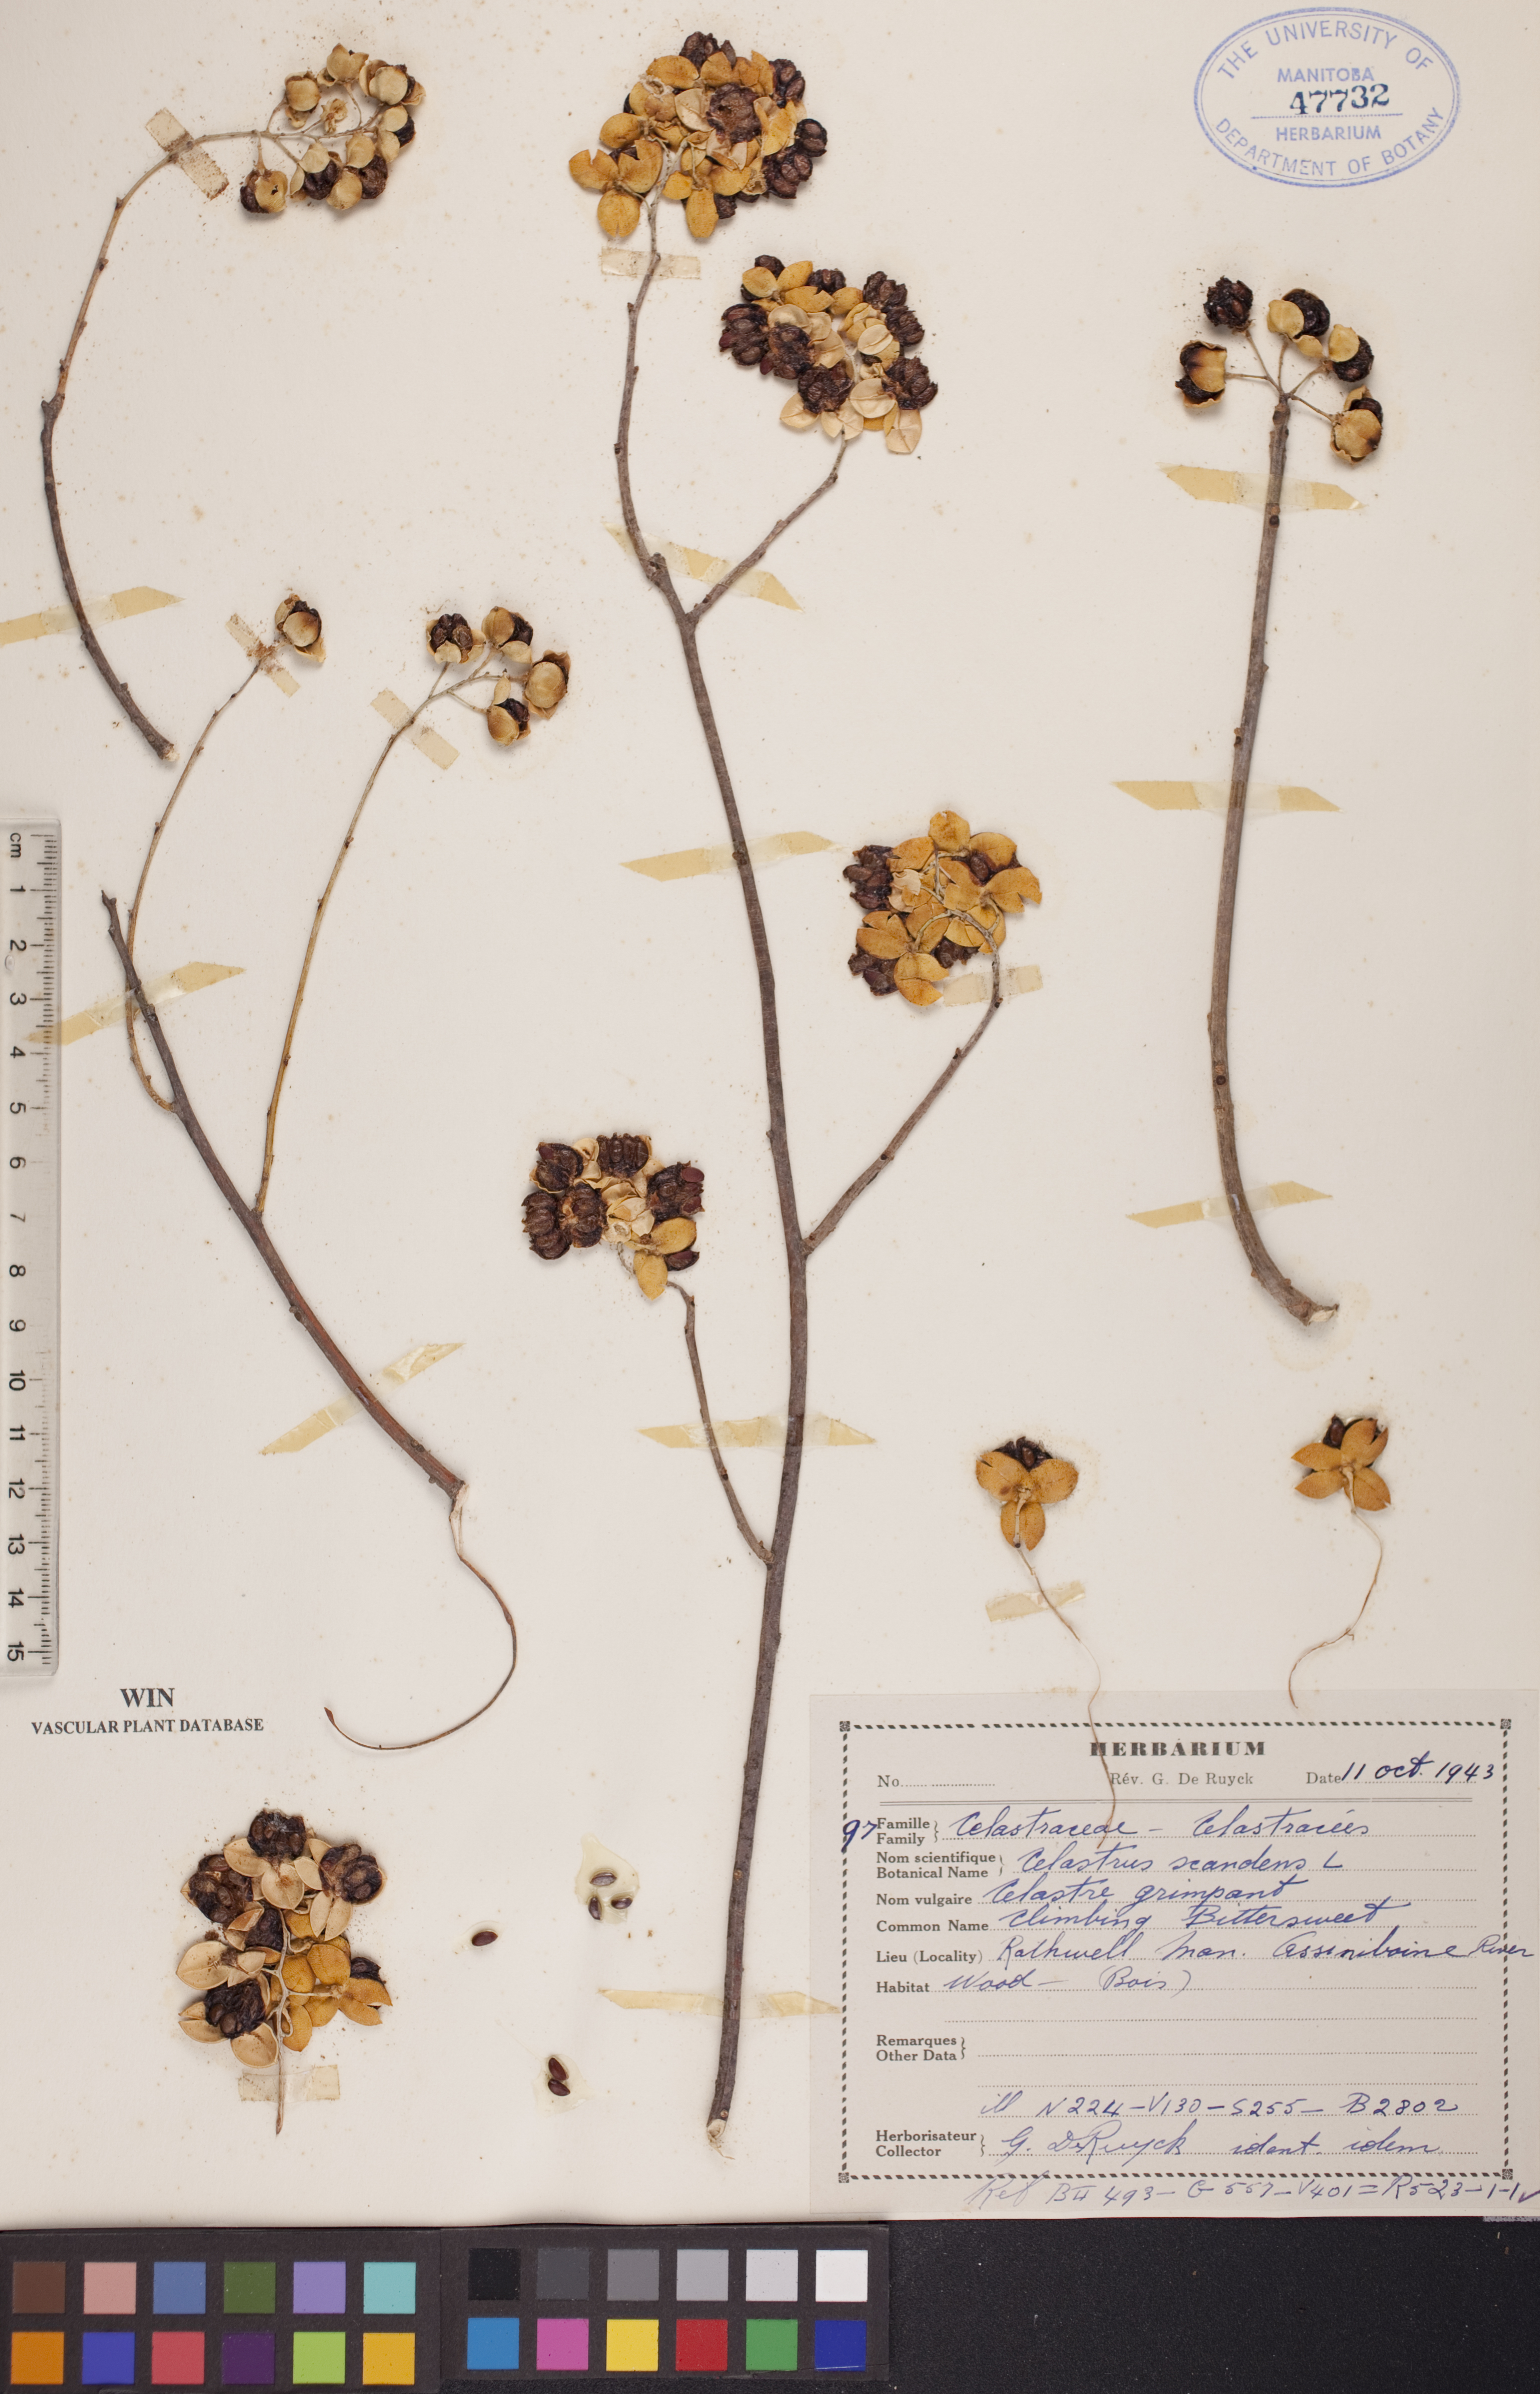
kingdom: Plantae
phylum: Tracheophyta
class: Magnoliopsida
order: Celastrales
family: Celastraceae
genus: Celastrus
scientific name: Celastrus scandens
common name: American bittersweet
